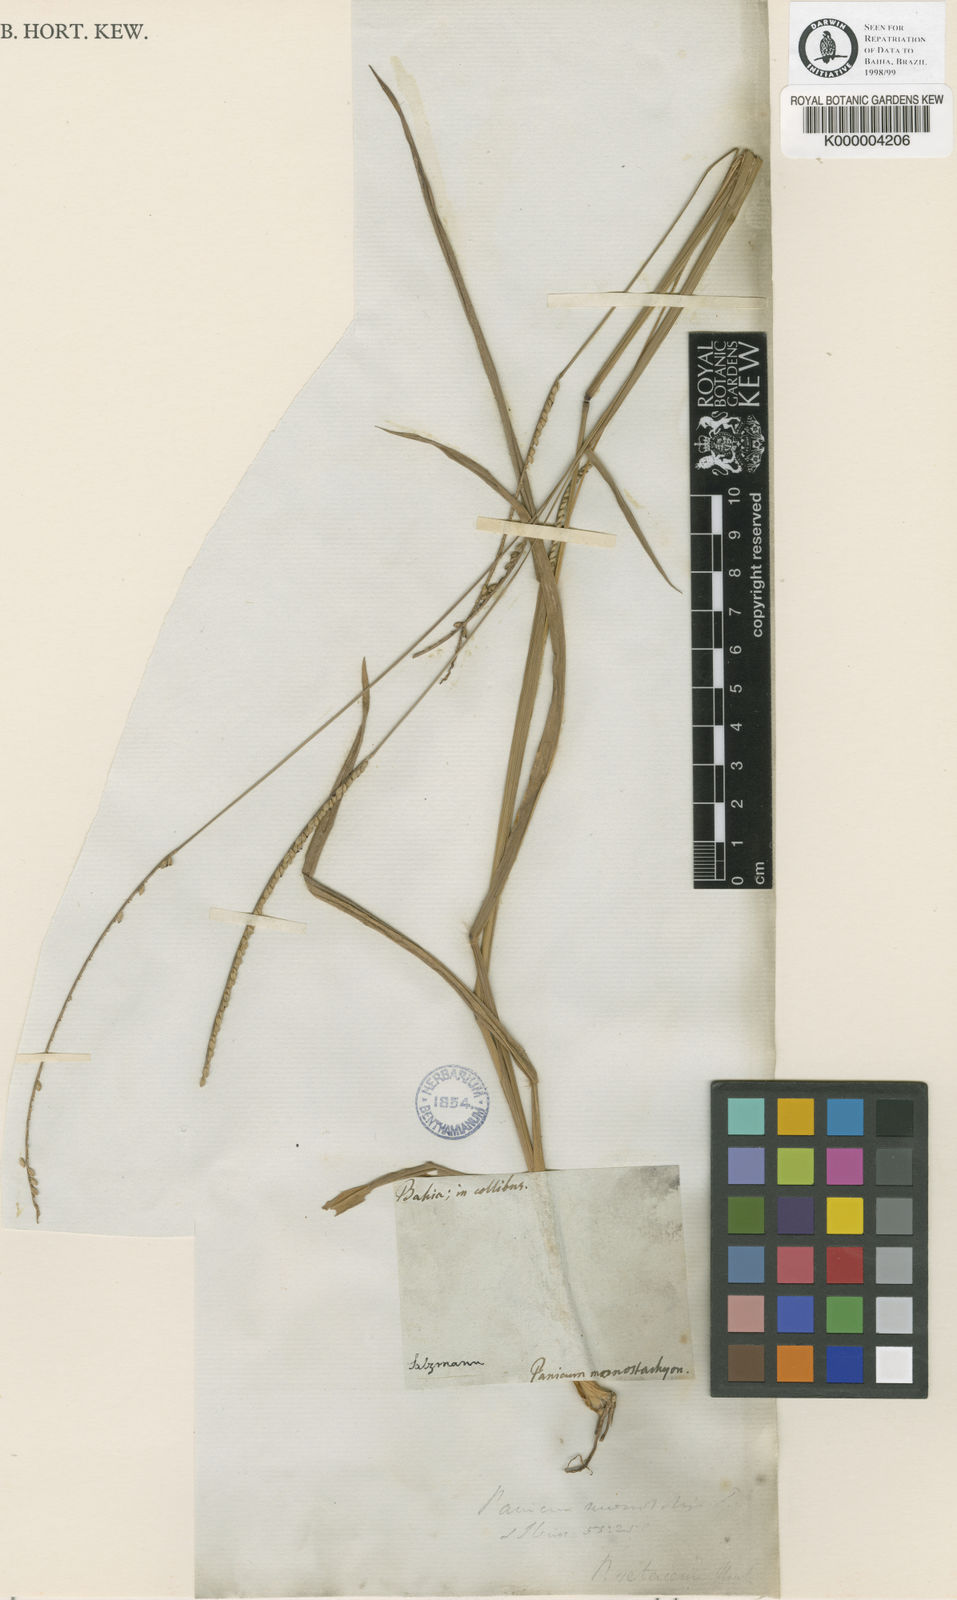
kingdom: Plantae
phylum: Tracheophyta
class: Liliopsida
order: Poales
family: Poaceae
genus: Paspalum
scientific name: Paspalum pilosum
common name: Crowngrass
